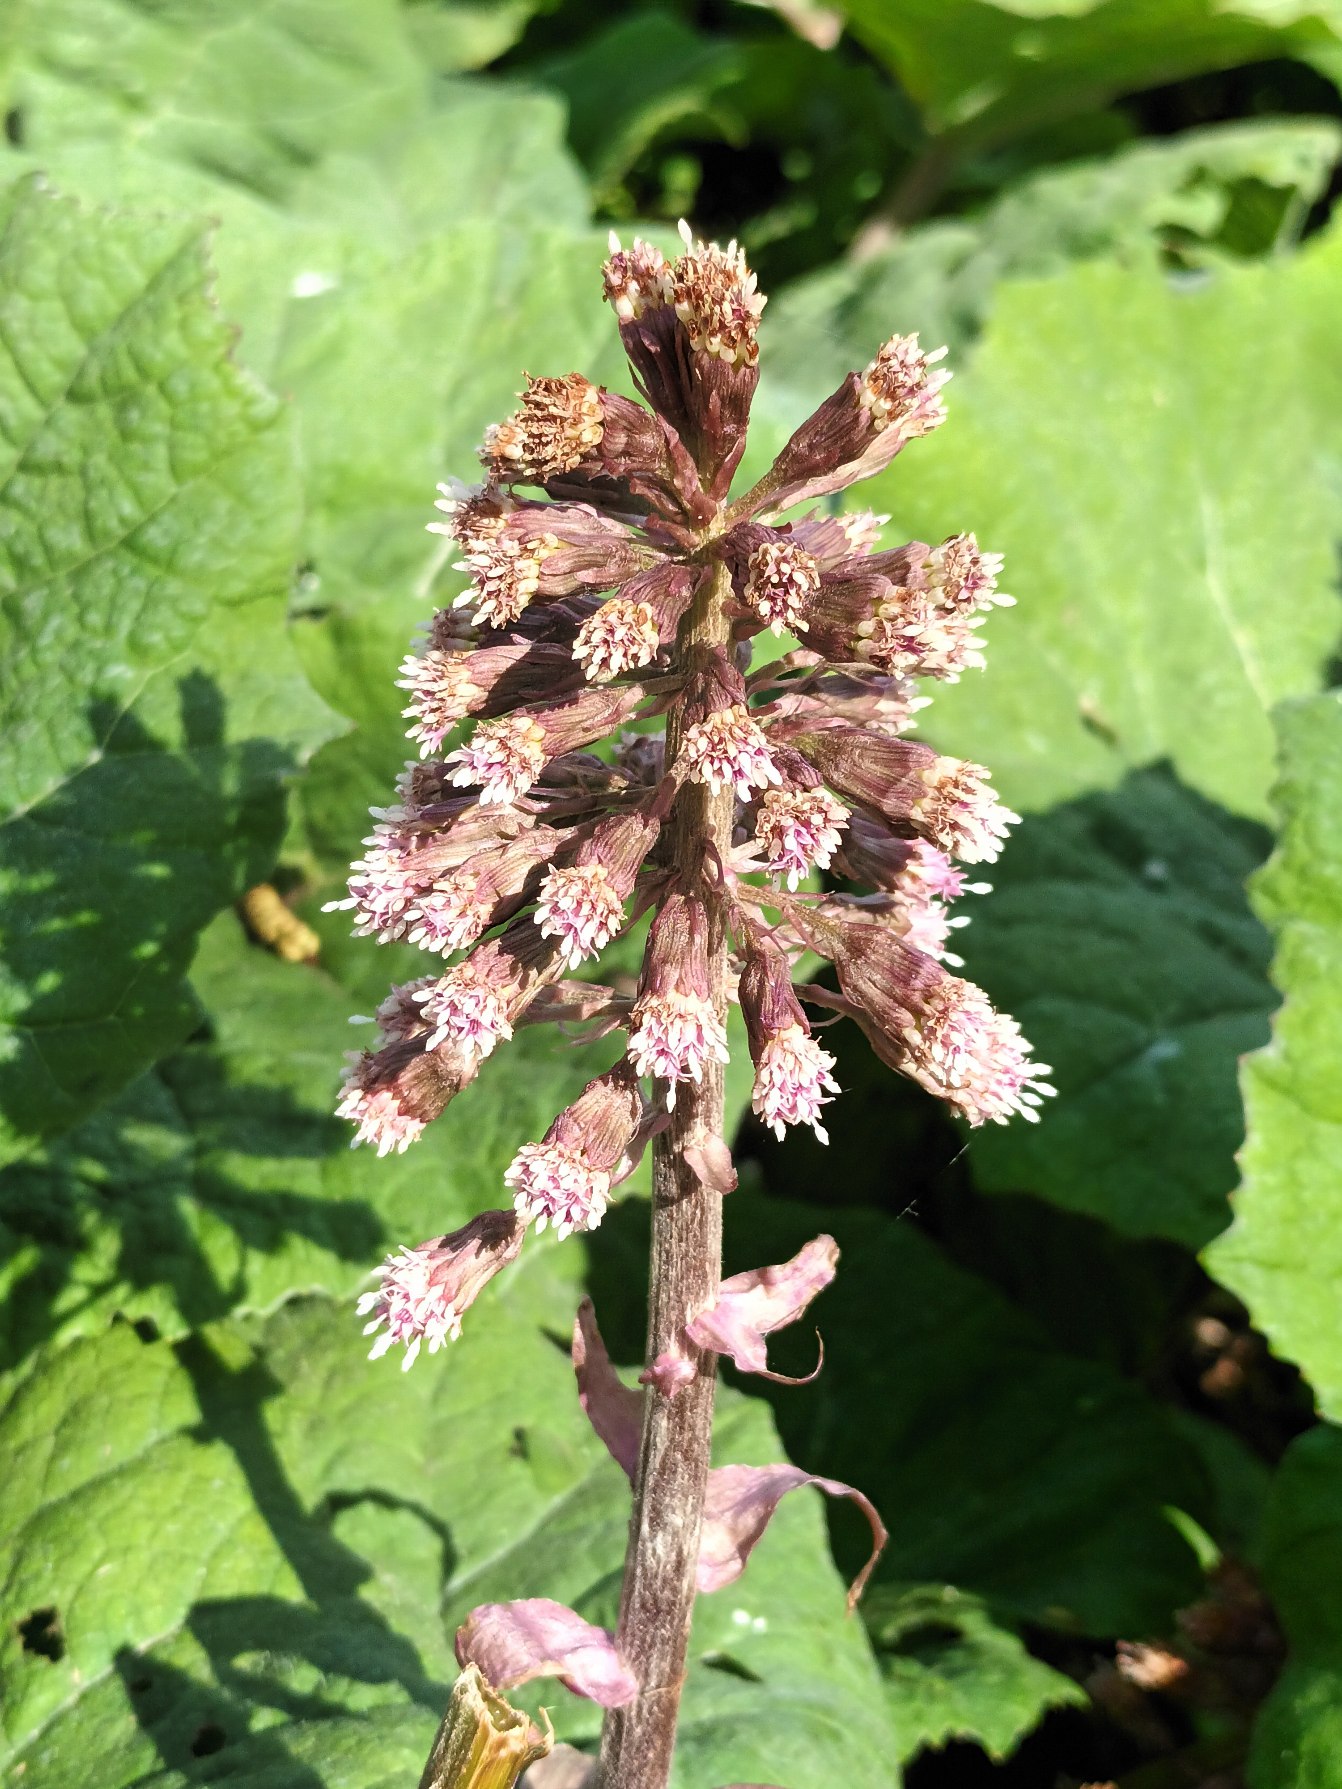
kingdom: Plantae
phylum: Tracheophyta
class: Magnoliopsida
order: Asterales
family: Asteraceae
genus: Petasites
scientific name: Petasites hybridus
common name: Rød hestehov
